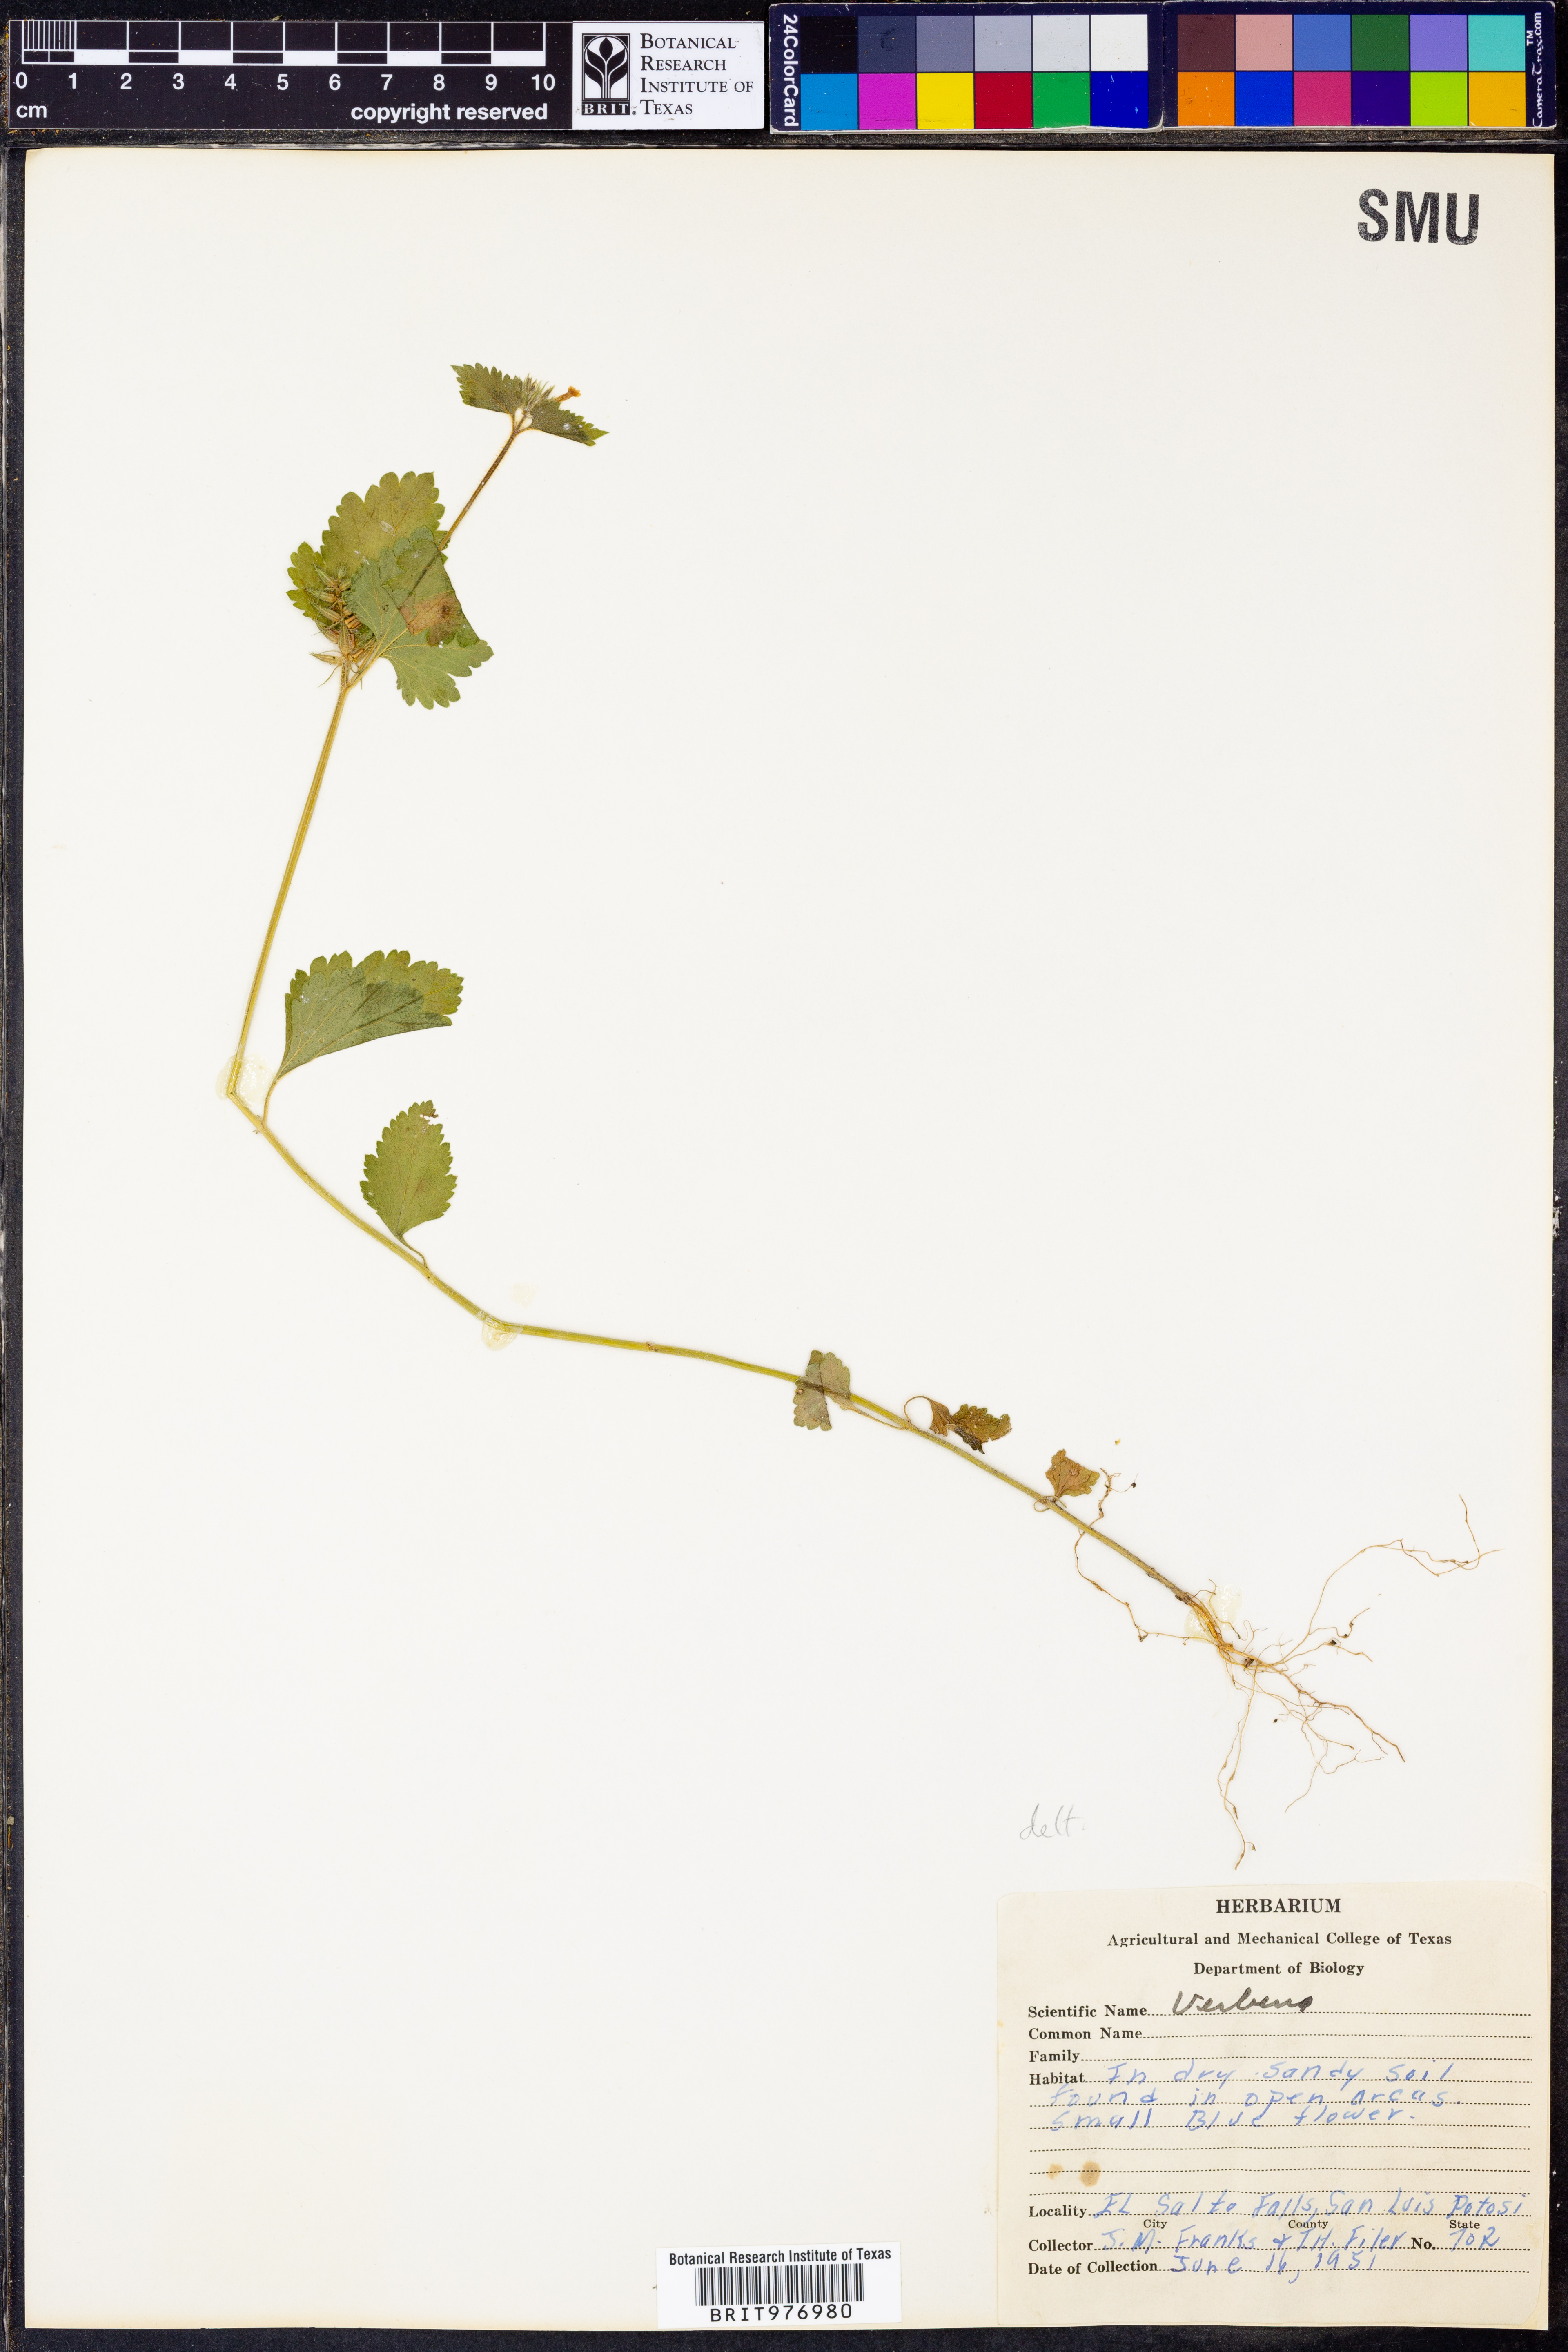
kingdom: Plantae
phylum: Tracheophyta
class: Magnoliopsida
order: Lamiales
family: Verbenaceae
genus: Verbena
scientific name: Verbena delticola
